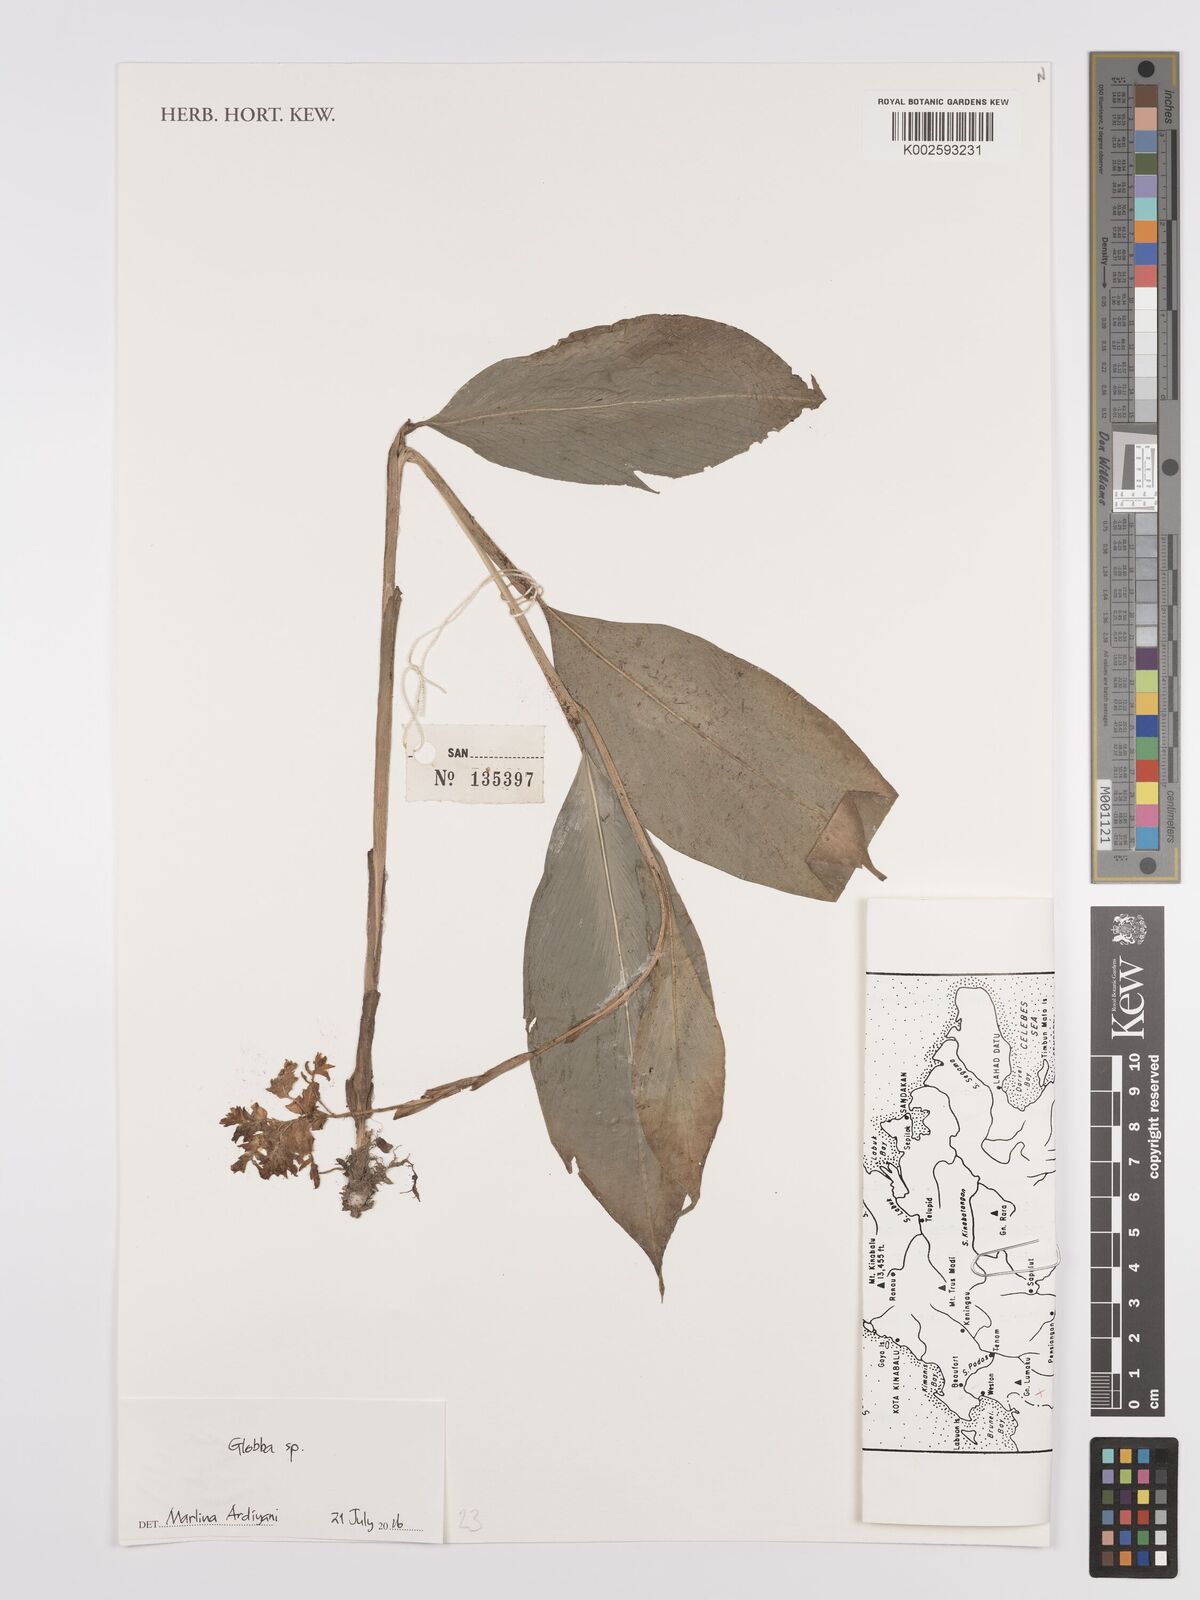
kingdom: Plantae
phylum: Tracheophyta
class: Liliopsida
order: Zingiberales
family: Zingiberaceae
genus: Globba
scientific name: Globba
